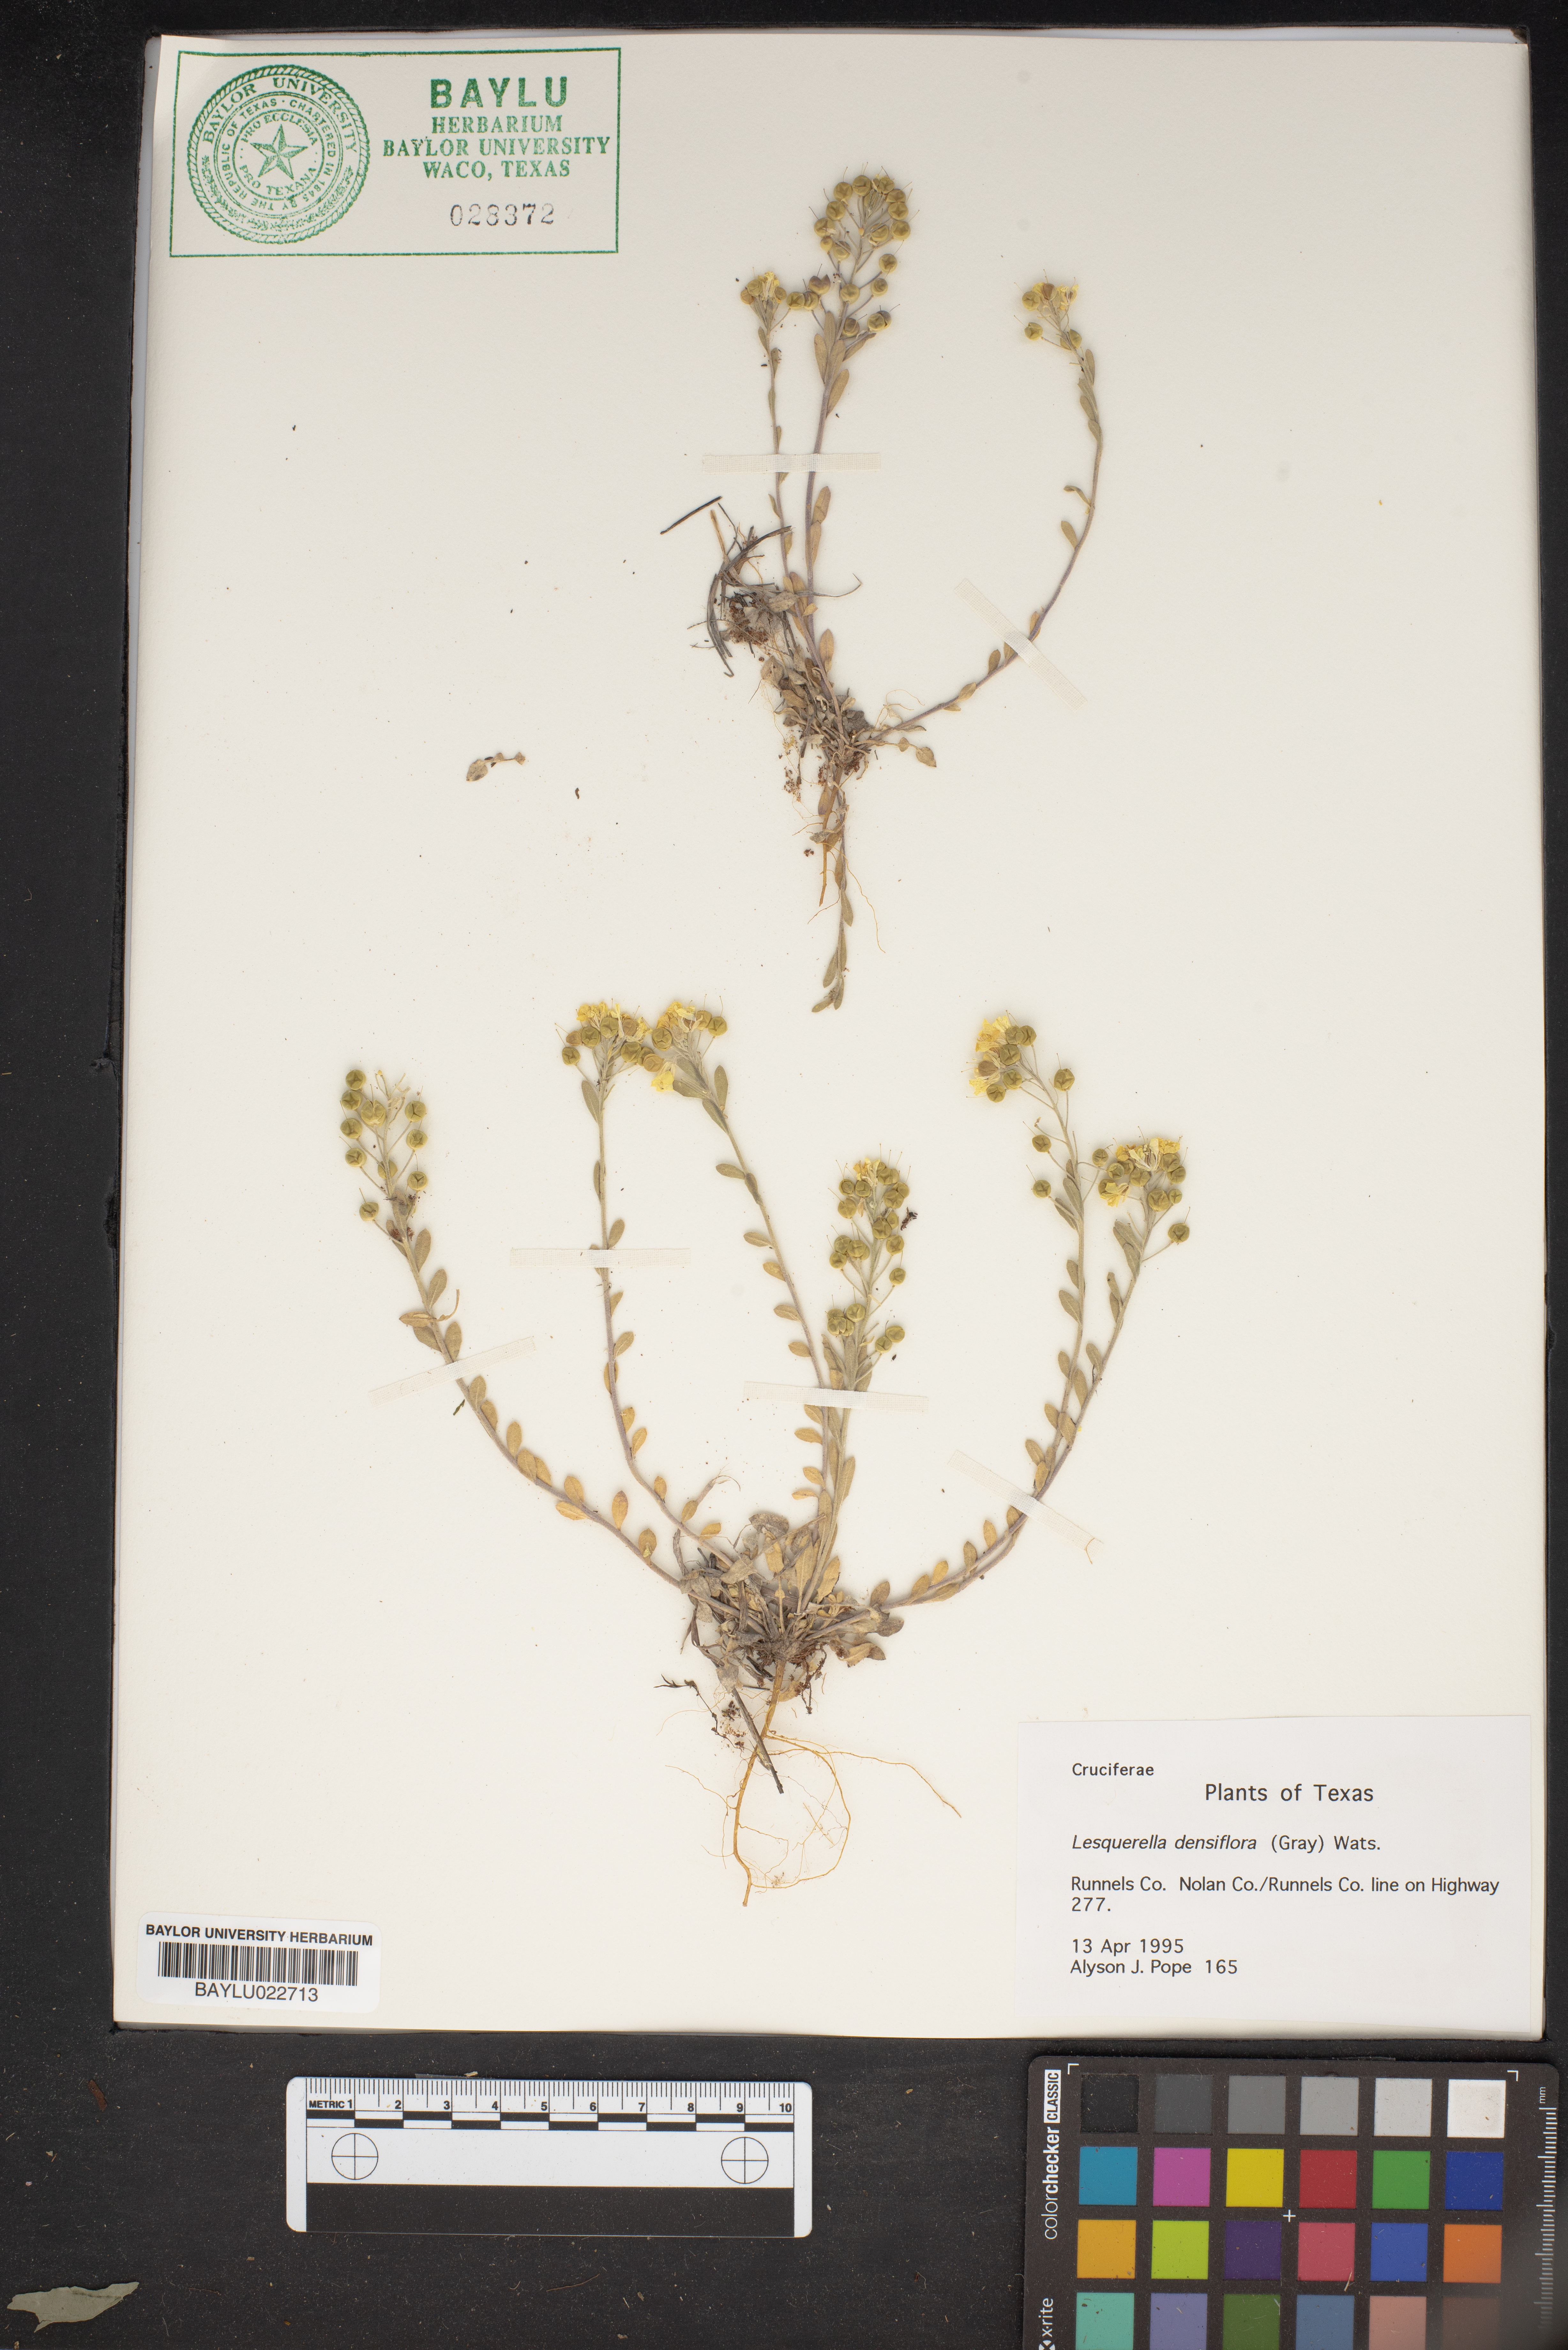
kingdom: Plantae
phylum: Tracheophyta
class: Magnoliopsida
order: Brassicales
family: Brassicaceae
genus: Physaria
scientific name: Physaria densiflora
